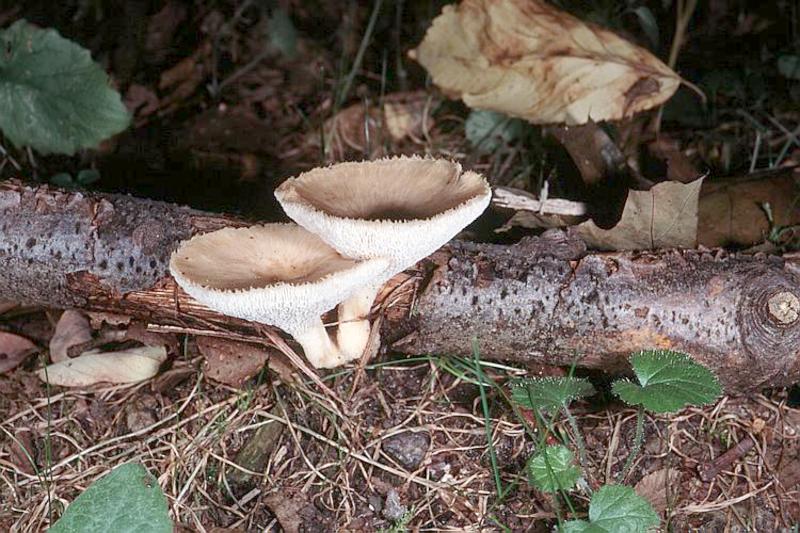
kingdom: Fungi
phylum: Basidiomycota
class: Agaricomycetes
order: Polyporales
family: Polyporaceae
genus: Polyporus
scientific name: Polyporus tuberaster
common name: Tuberous polypore
